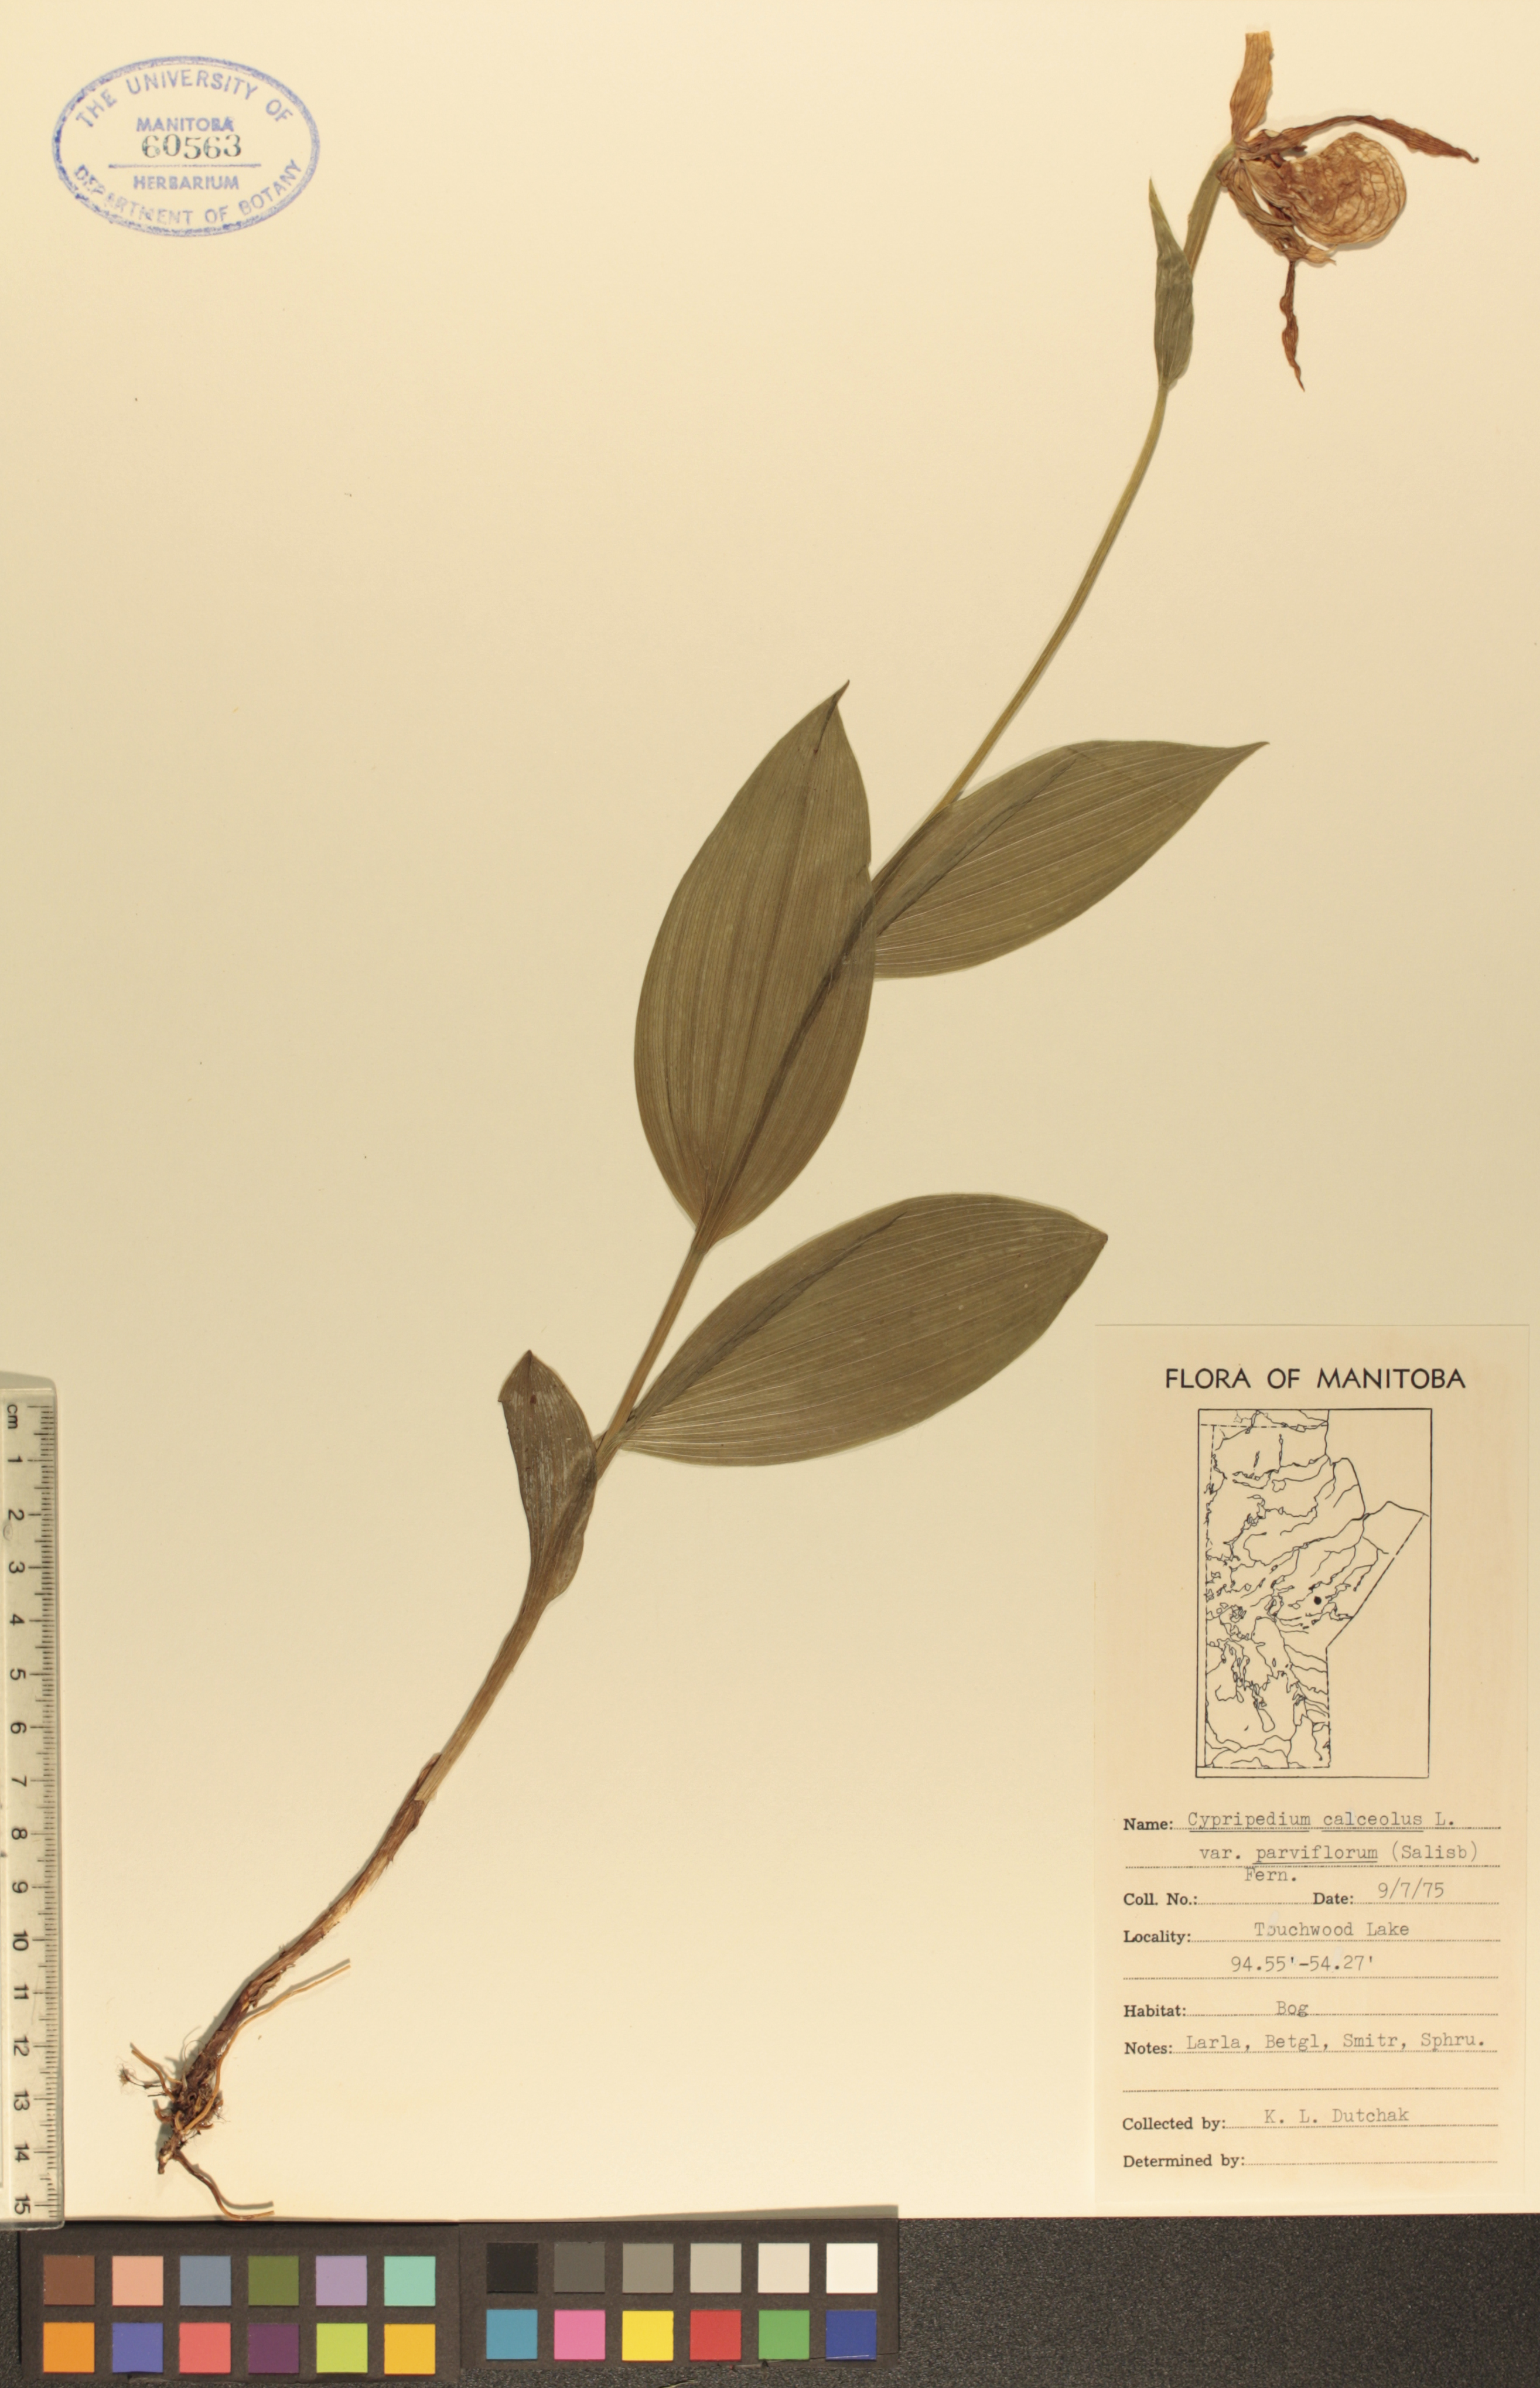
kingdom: Plantae
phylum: Tracheophyta
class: Liliopsida
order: Asparagales
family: Orchidaceae
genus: Cypripedium
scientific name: Cypripedium parviflorum
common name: American yellow lady's-slipper
